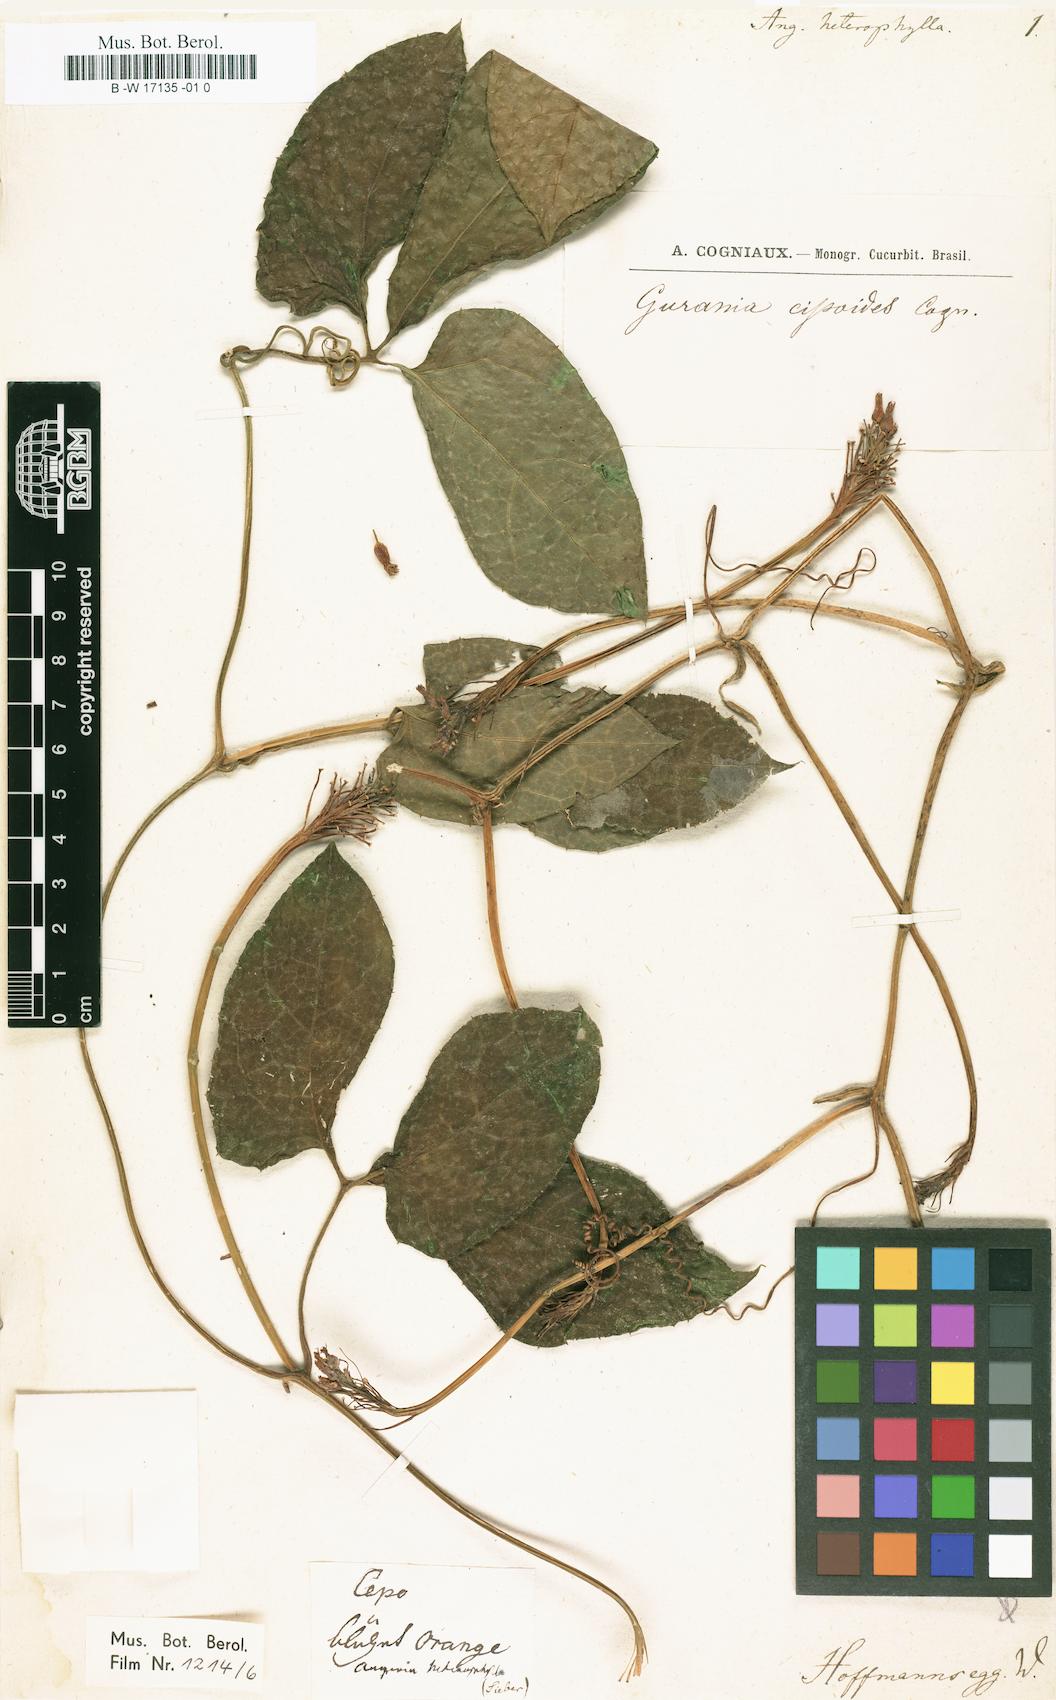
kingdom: Plantae
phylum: Tracheophyta
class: Magnoliopsida
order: Cucurbitales
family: Cucurbitaceae
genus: Gurania
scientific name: Gurania bignoniacea
